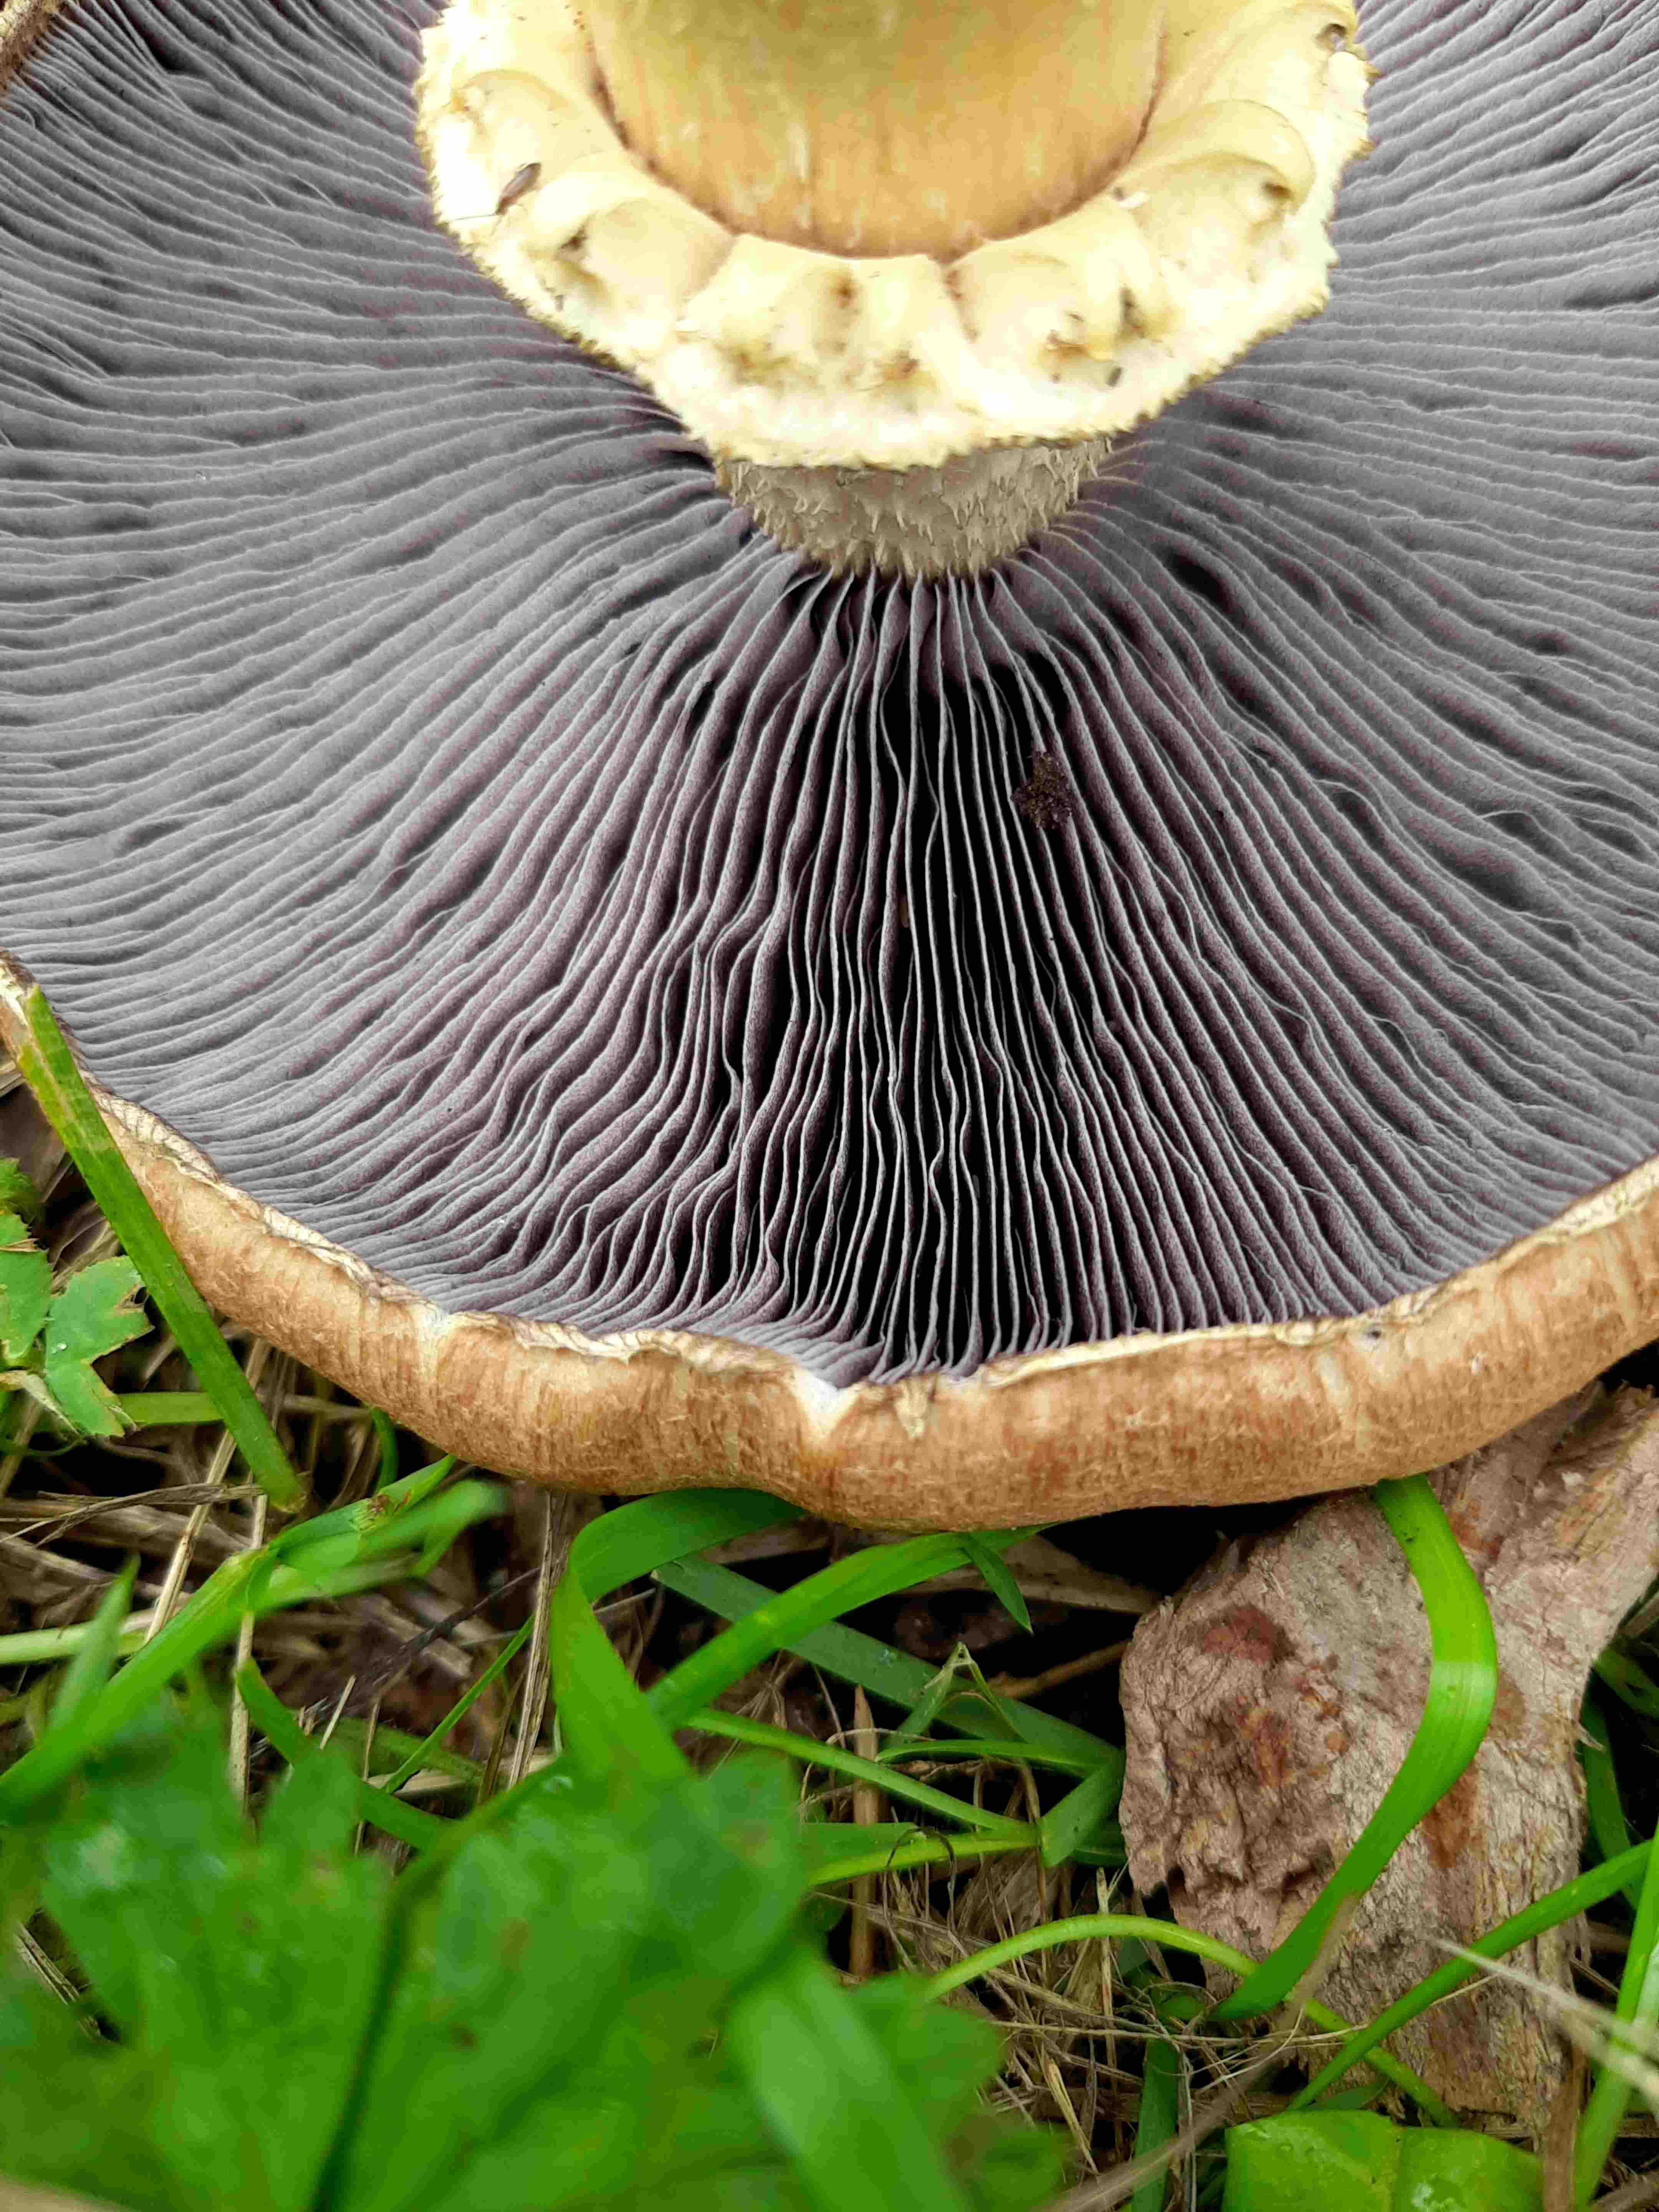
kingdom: Fungi
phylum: Basidiomycota
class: Agaricomycetes
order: Agaricales
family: Strophariaceae
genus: Stropharia
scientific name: Stropharia rugosoannulata
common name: rødbrun bredblad
